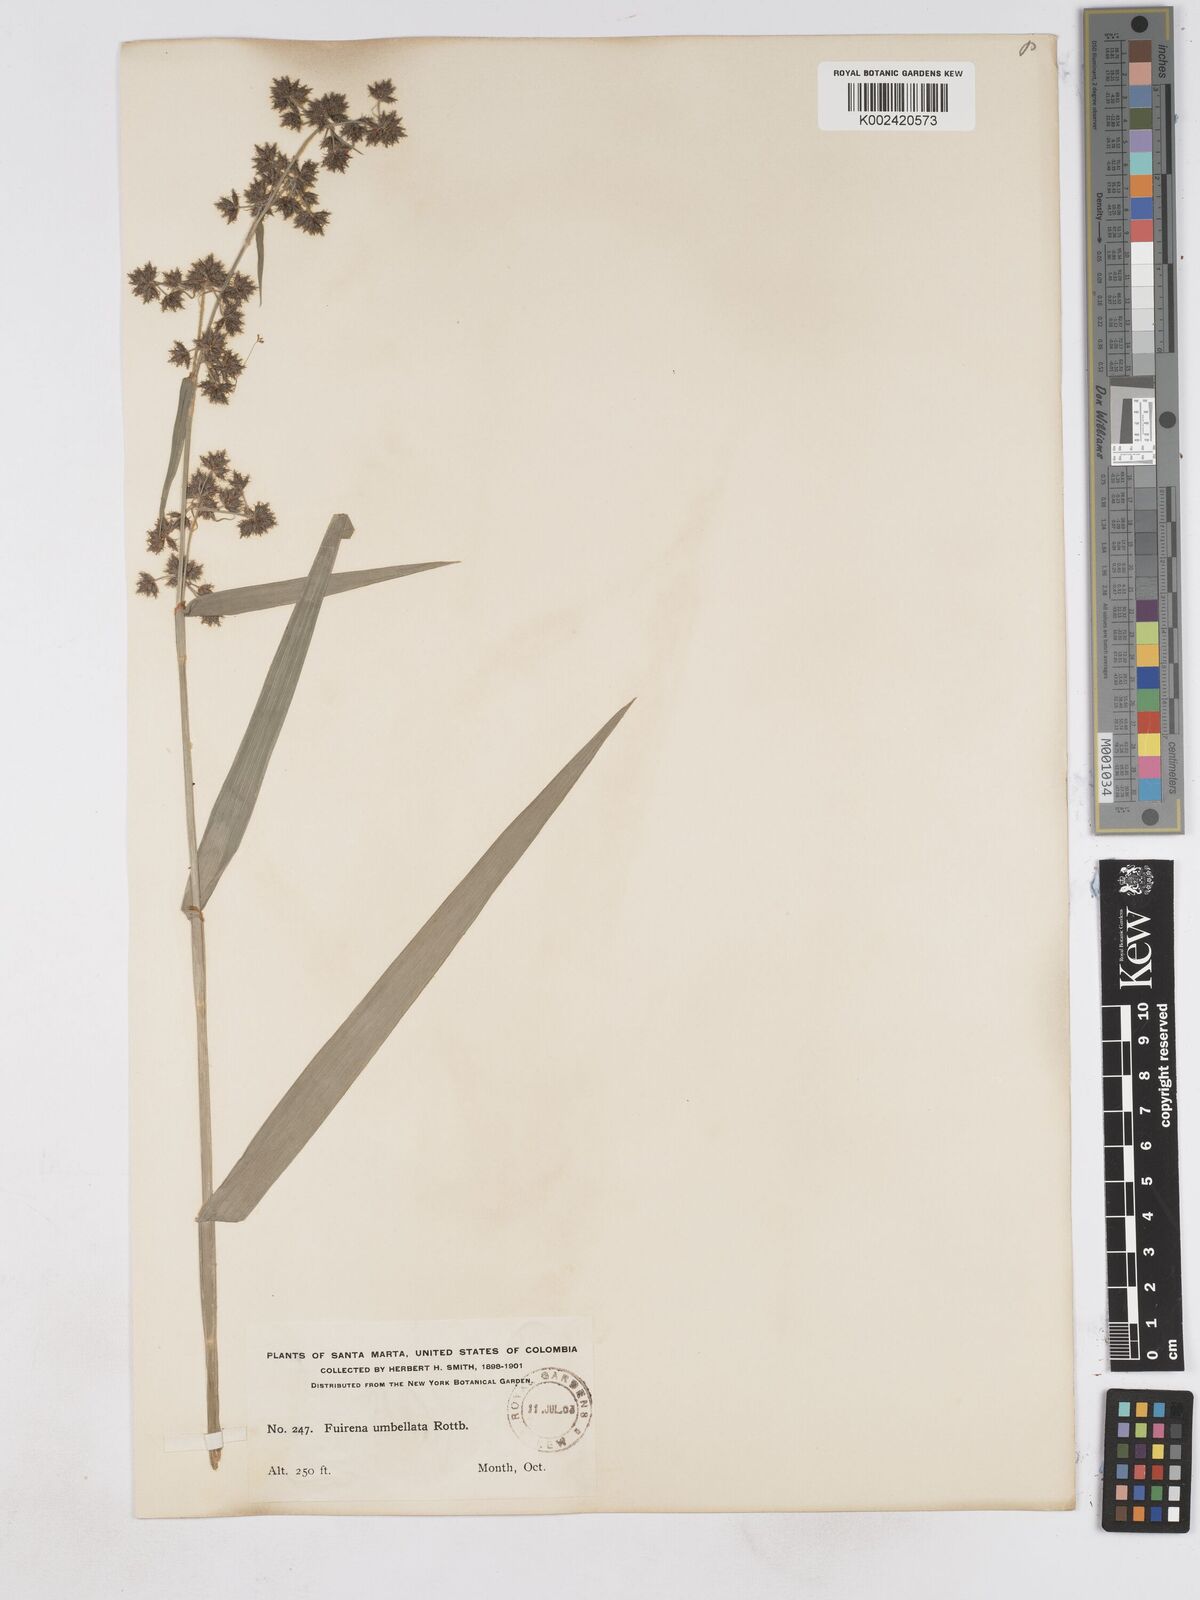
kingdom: Plantae
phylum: Tracheophyta
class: Liliopsida
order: Poales
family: Cyperaceae
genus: Fuirena
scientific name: Fuirena umbellata
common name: Yefen
